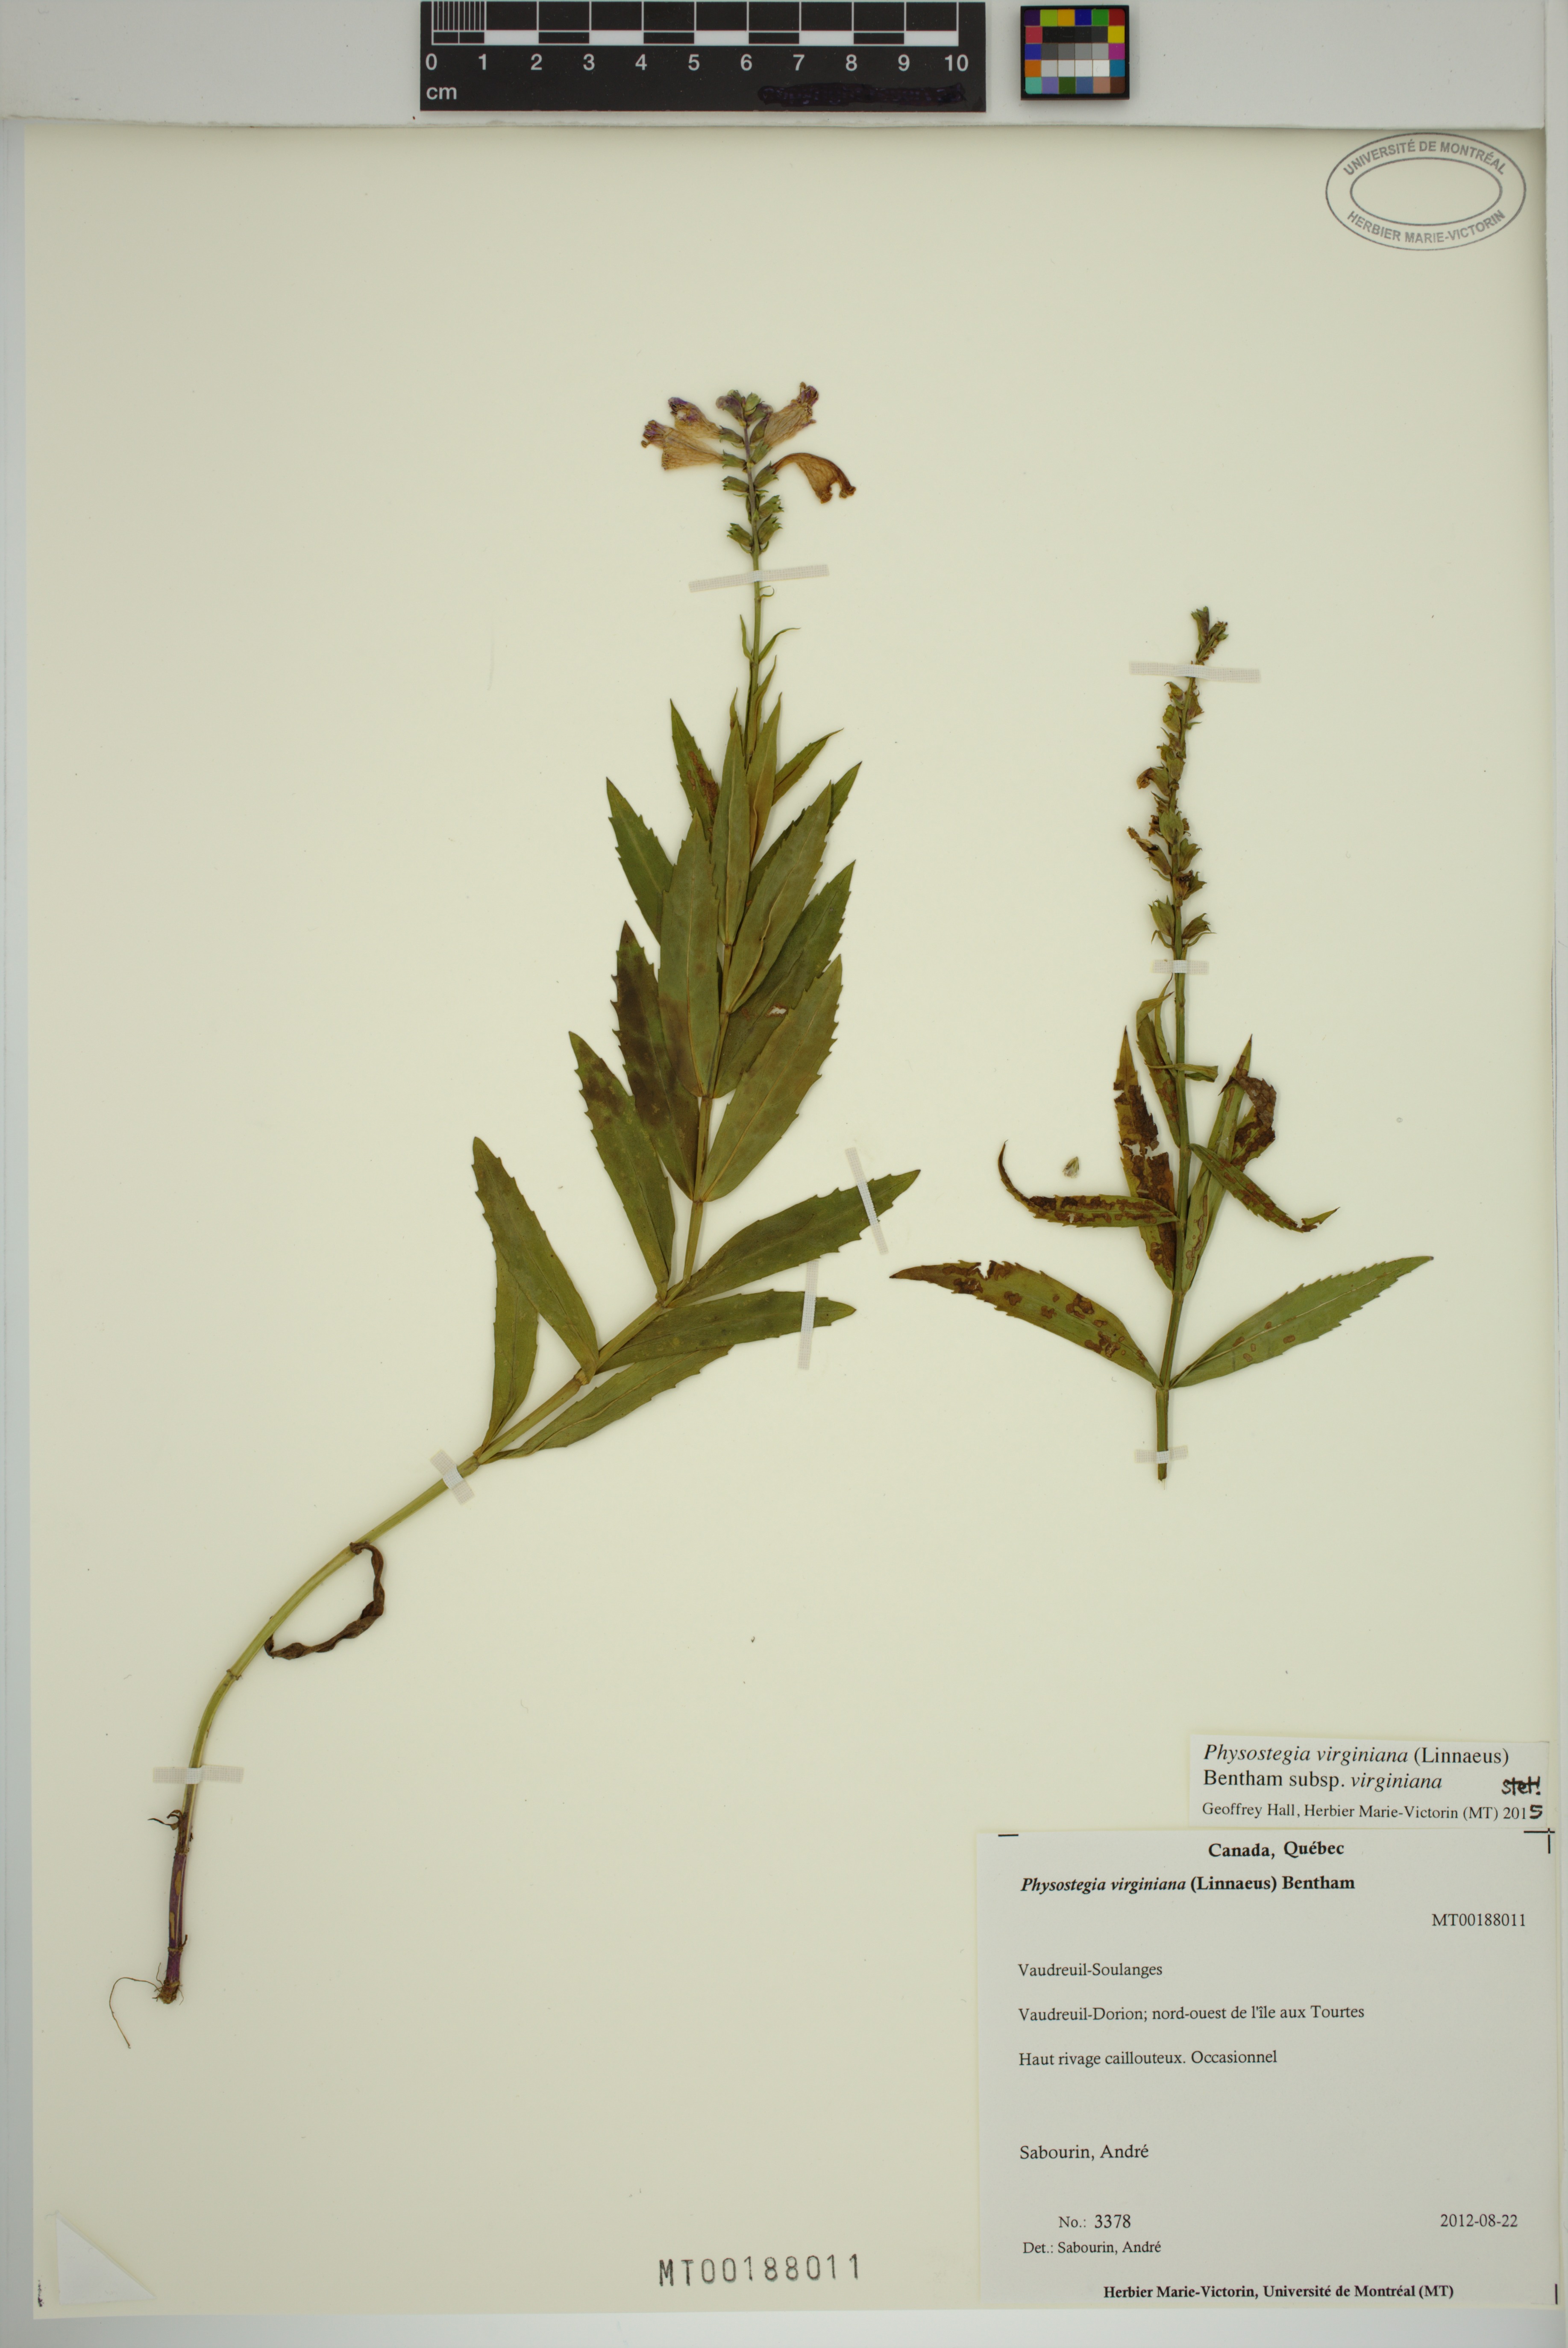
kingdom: Plantae
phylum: Tracheophyta
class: Magnoliopsida
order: Lamiales
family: Lamiaceae
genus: Physostegia
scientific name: Physostegia virginiana
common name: Obedient-plant
